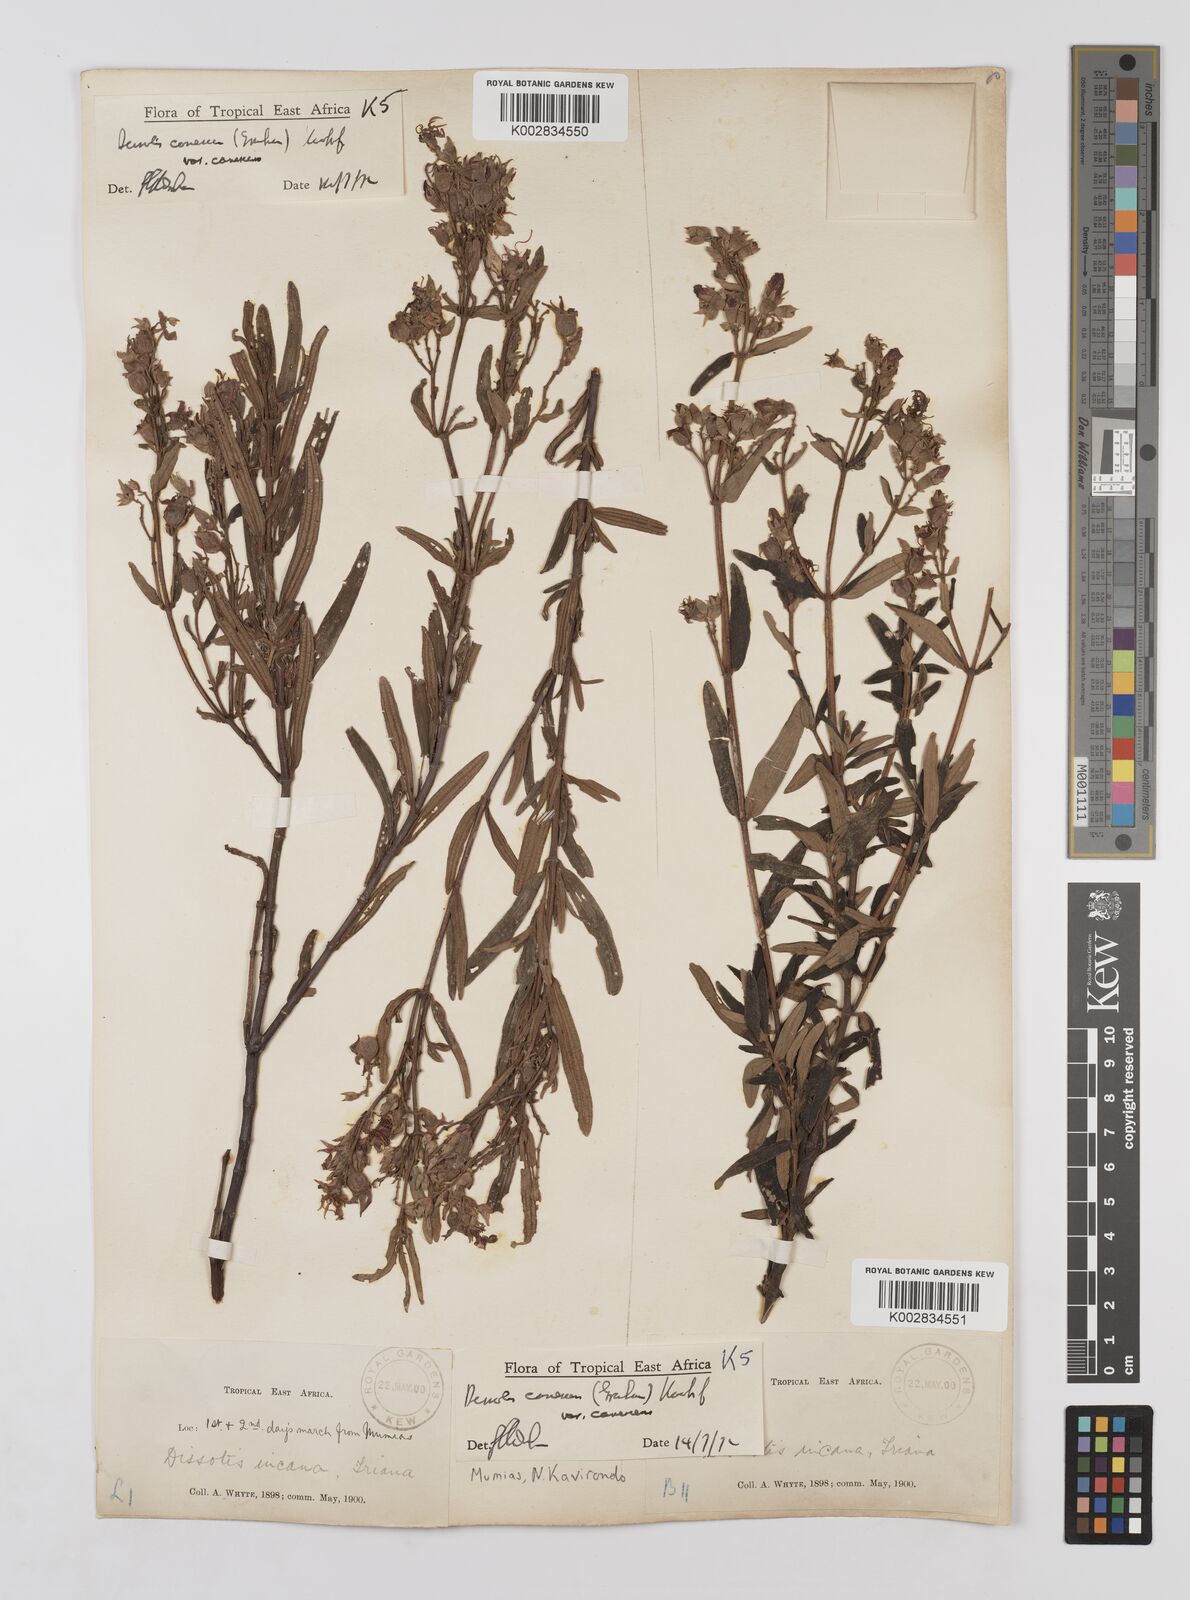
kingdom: Plantae
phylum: Tracheophyta
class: Magnoliopsida
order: Myrtales
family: Melastomataceae
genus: Argyrella
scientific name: Argyrella canescens
